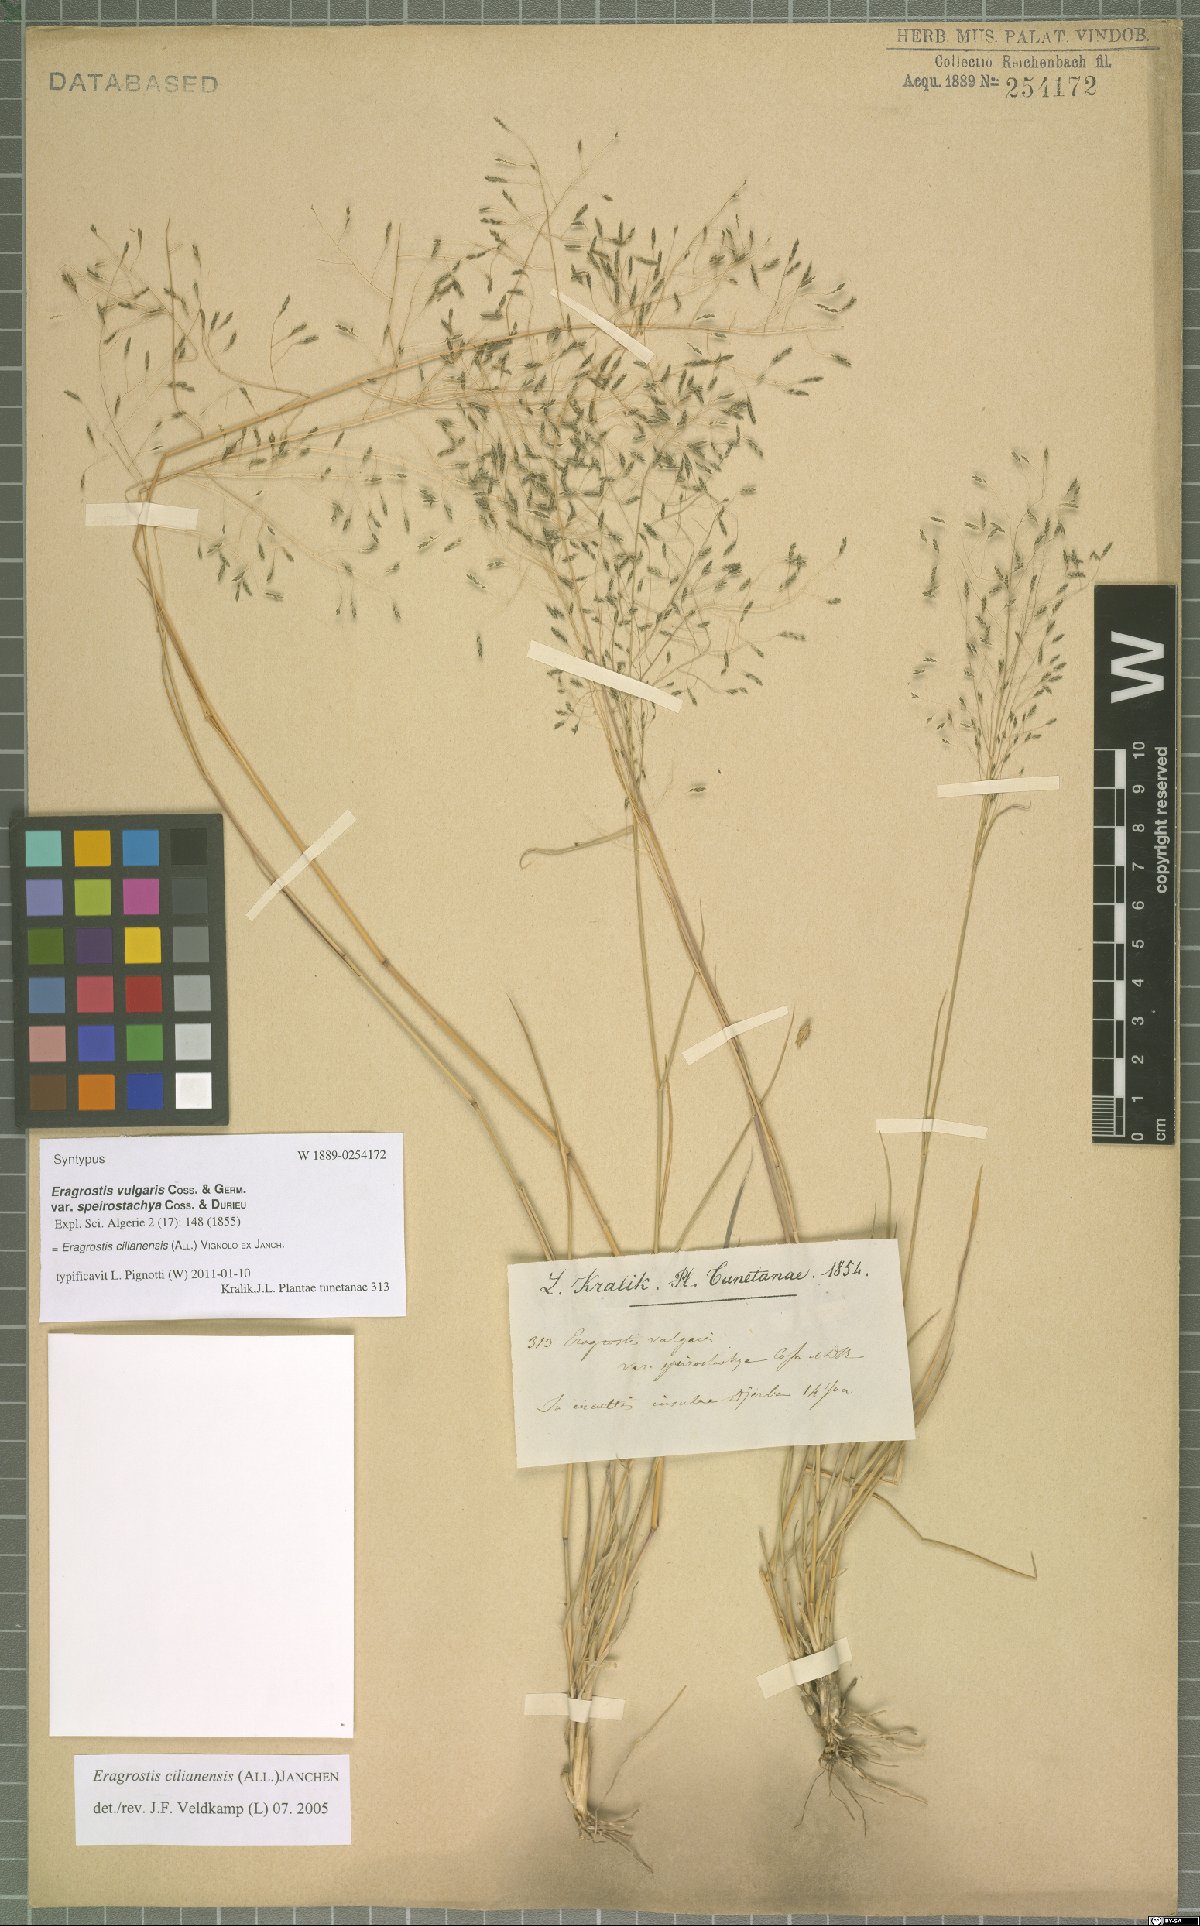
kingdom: Plantae
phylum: Tracheophyta
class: Liliopsida
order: Poales
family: Poaceae
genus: Eragrostis
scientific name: Eragrostis cilianensis
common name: Stinkgrass
